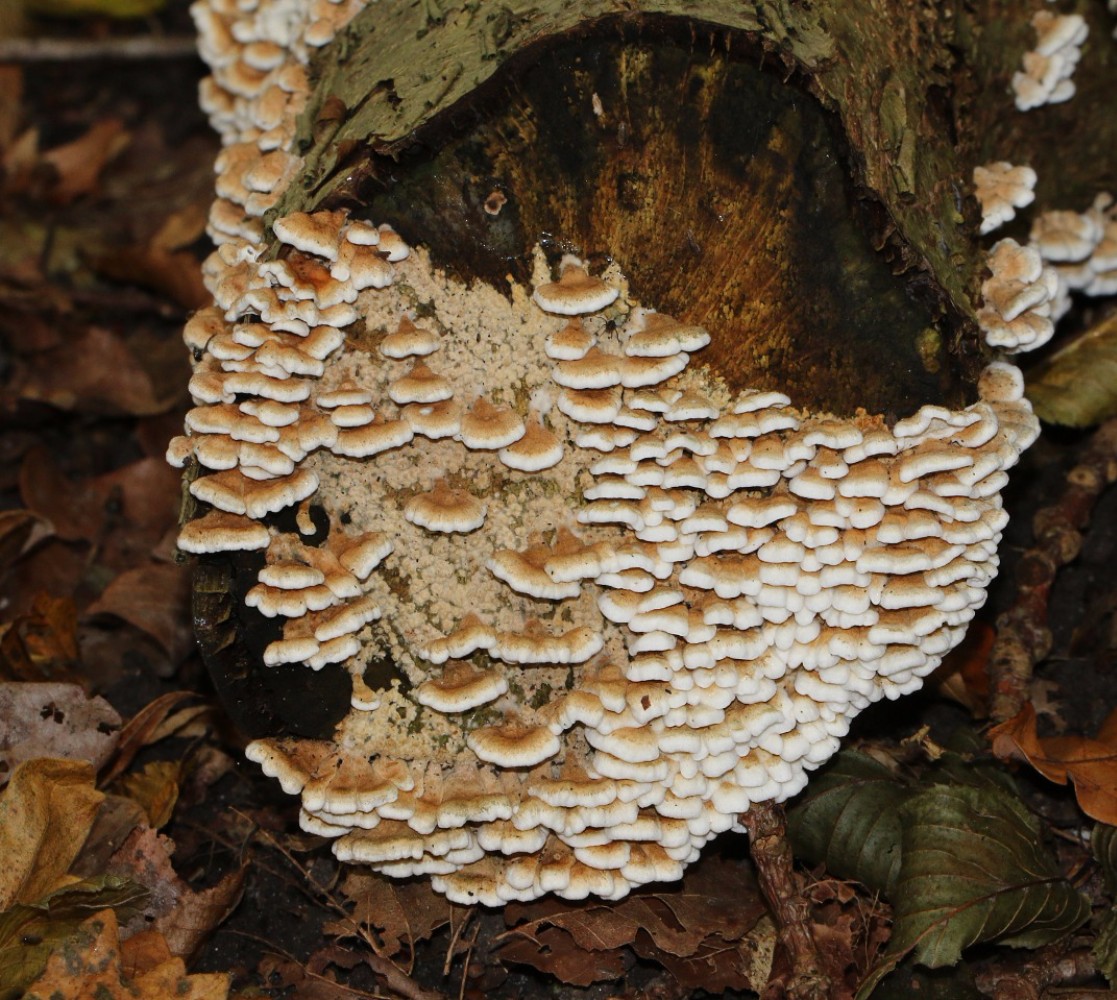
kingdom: Fungi
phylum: Basidiomycota
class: Agaricomycetes
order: Amylocorticiales
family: Amylocorticiaceae
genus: Plicaturopsis
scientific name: Plicaturopsis crispa
